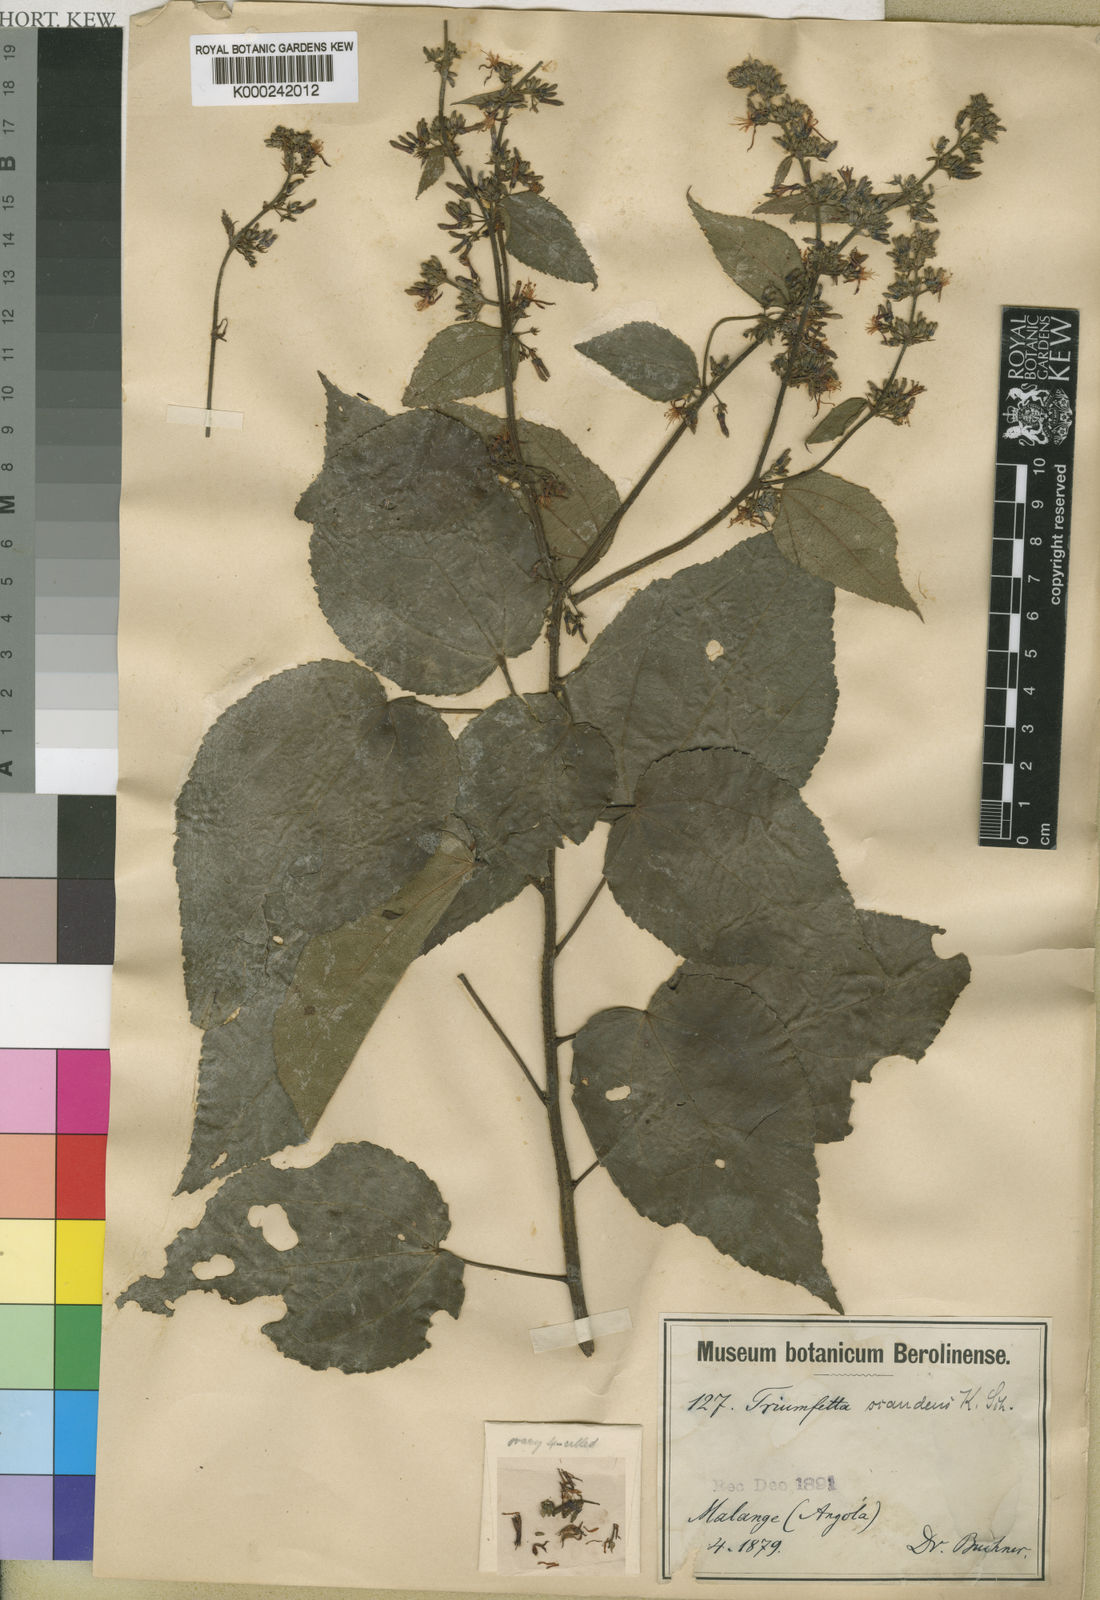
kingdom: Plantae
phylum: Tracheophyta
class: Magnoliopsida
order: Malvales
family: Malvaceae
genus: Triumfetta
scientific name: Triumfetta scandens
